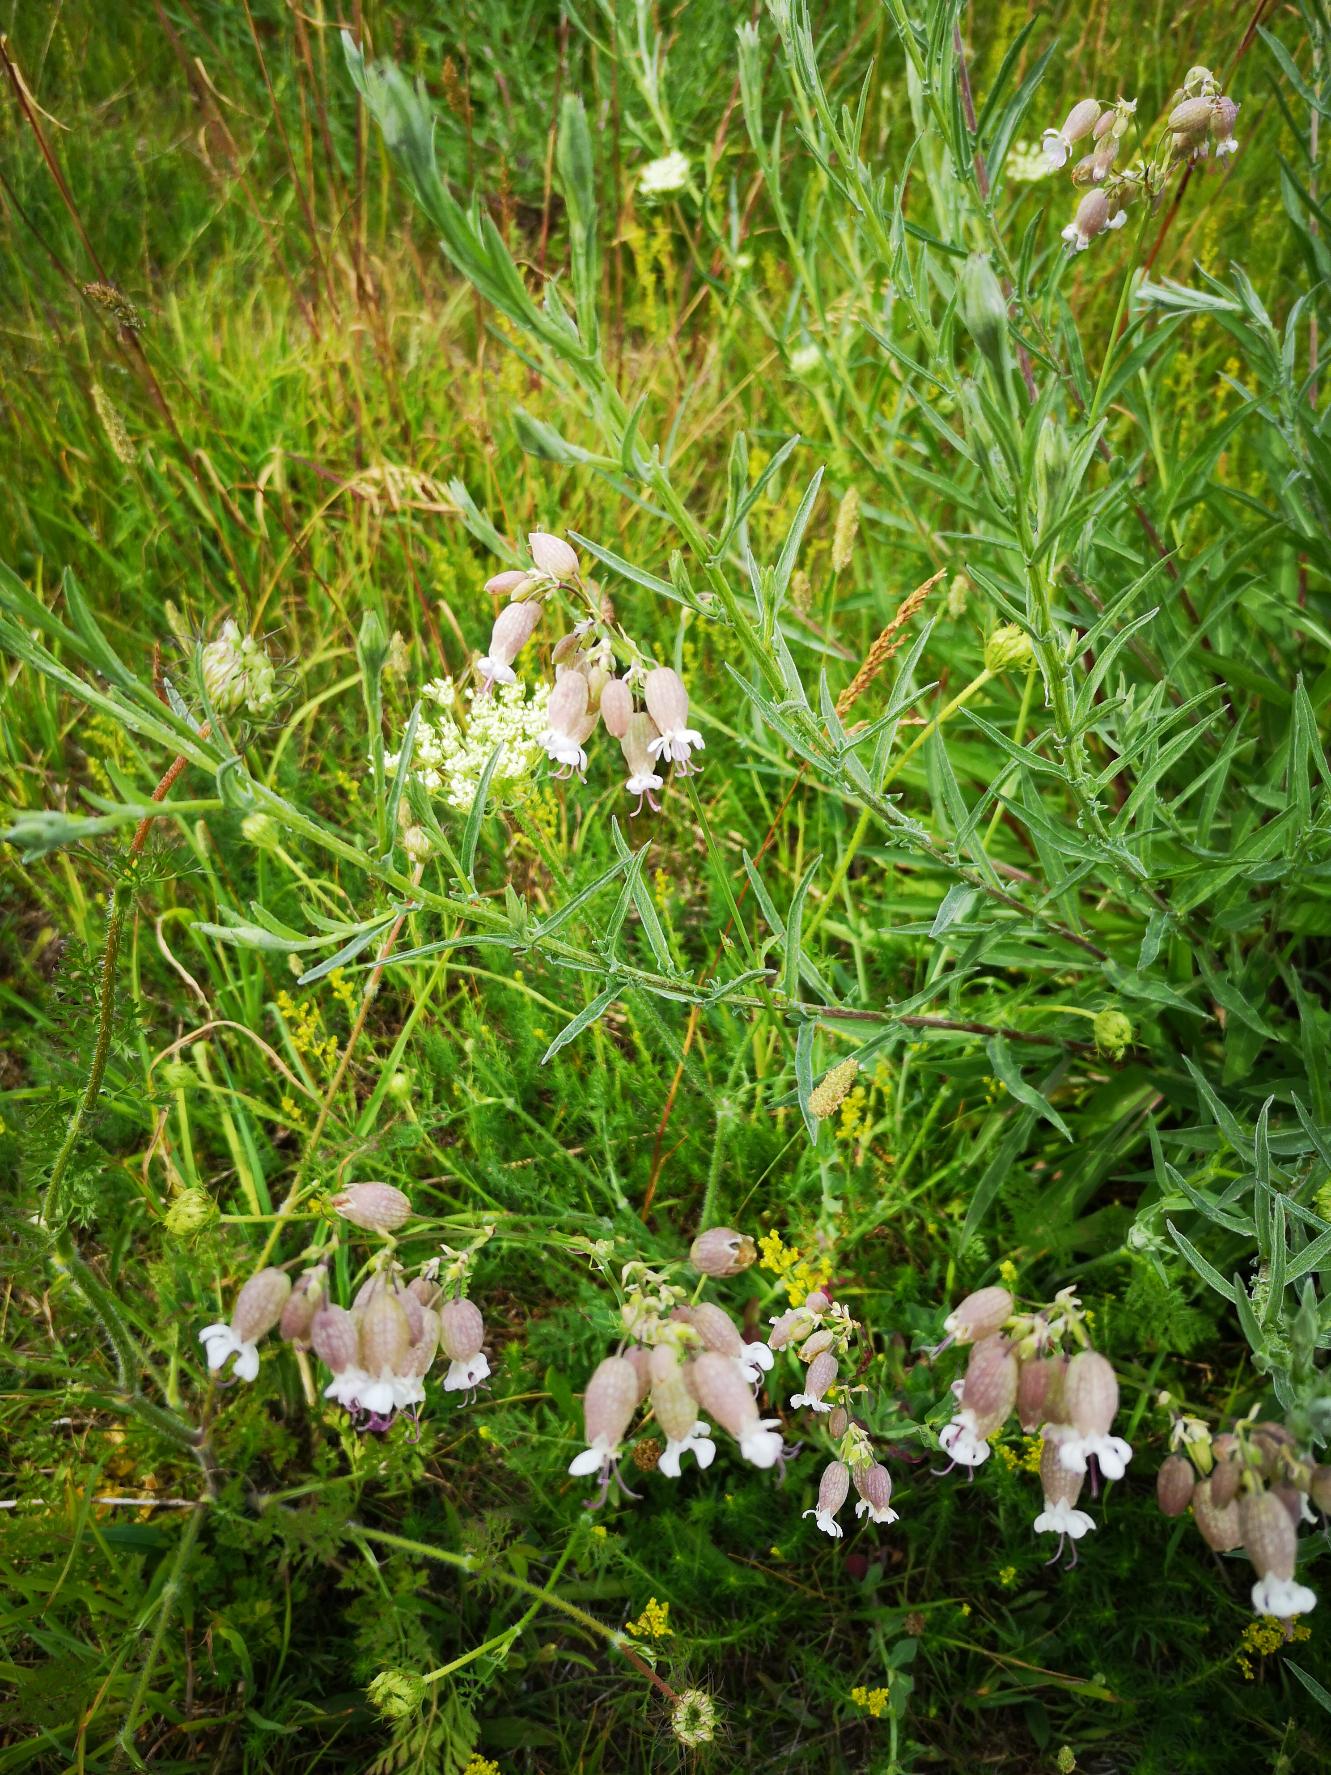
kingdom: Plantae
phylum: Tracheophyta
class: Magnoliopsida
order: Caryophyllales
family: Caryophyllaceae
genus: Silene
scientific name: Silene vulgaris
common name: Blæresmælde
